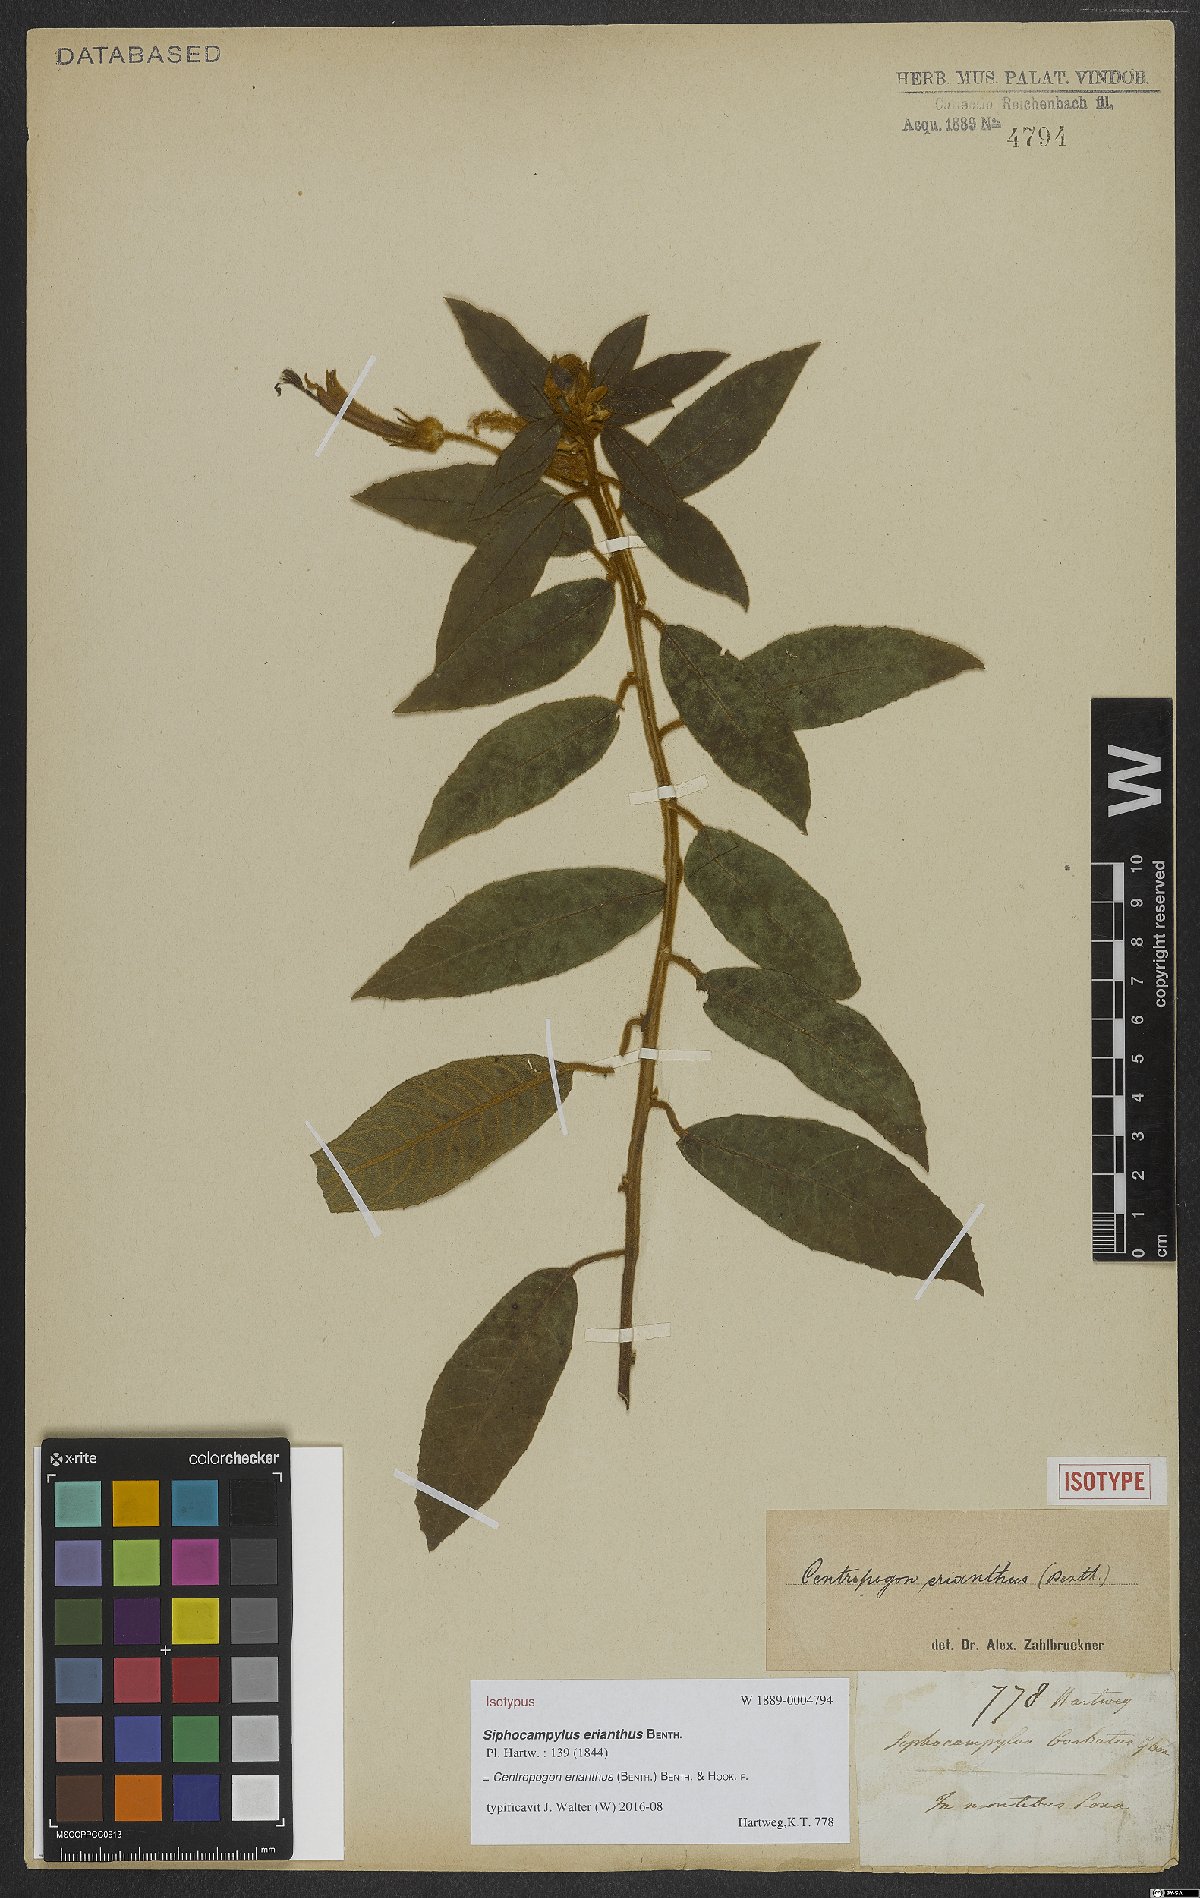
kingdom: Plantae
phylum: Tracheophyta
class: Magnoliopsida
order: Asterales
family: Campanulaceae
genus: Centropogon
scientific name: Centropogon erianthus
